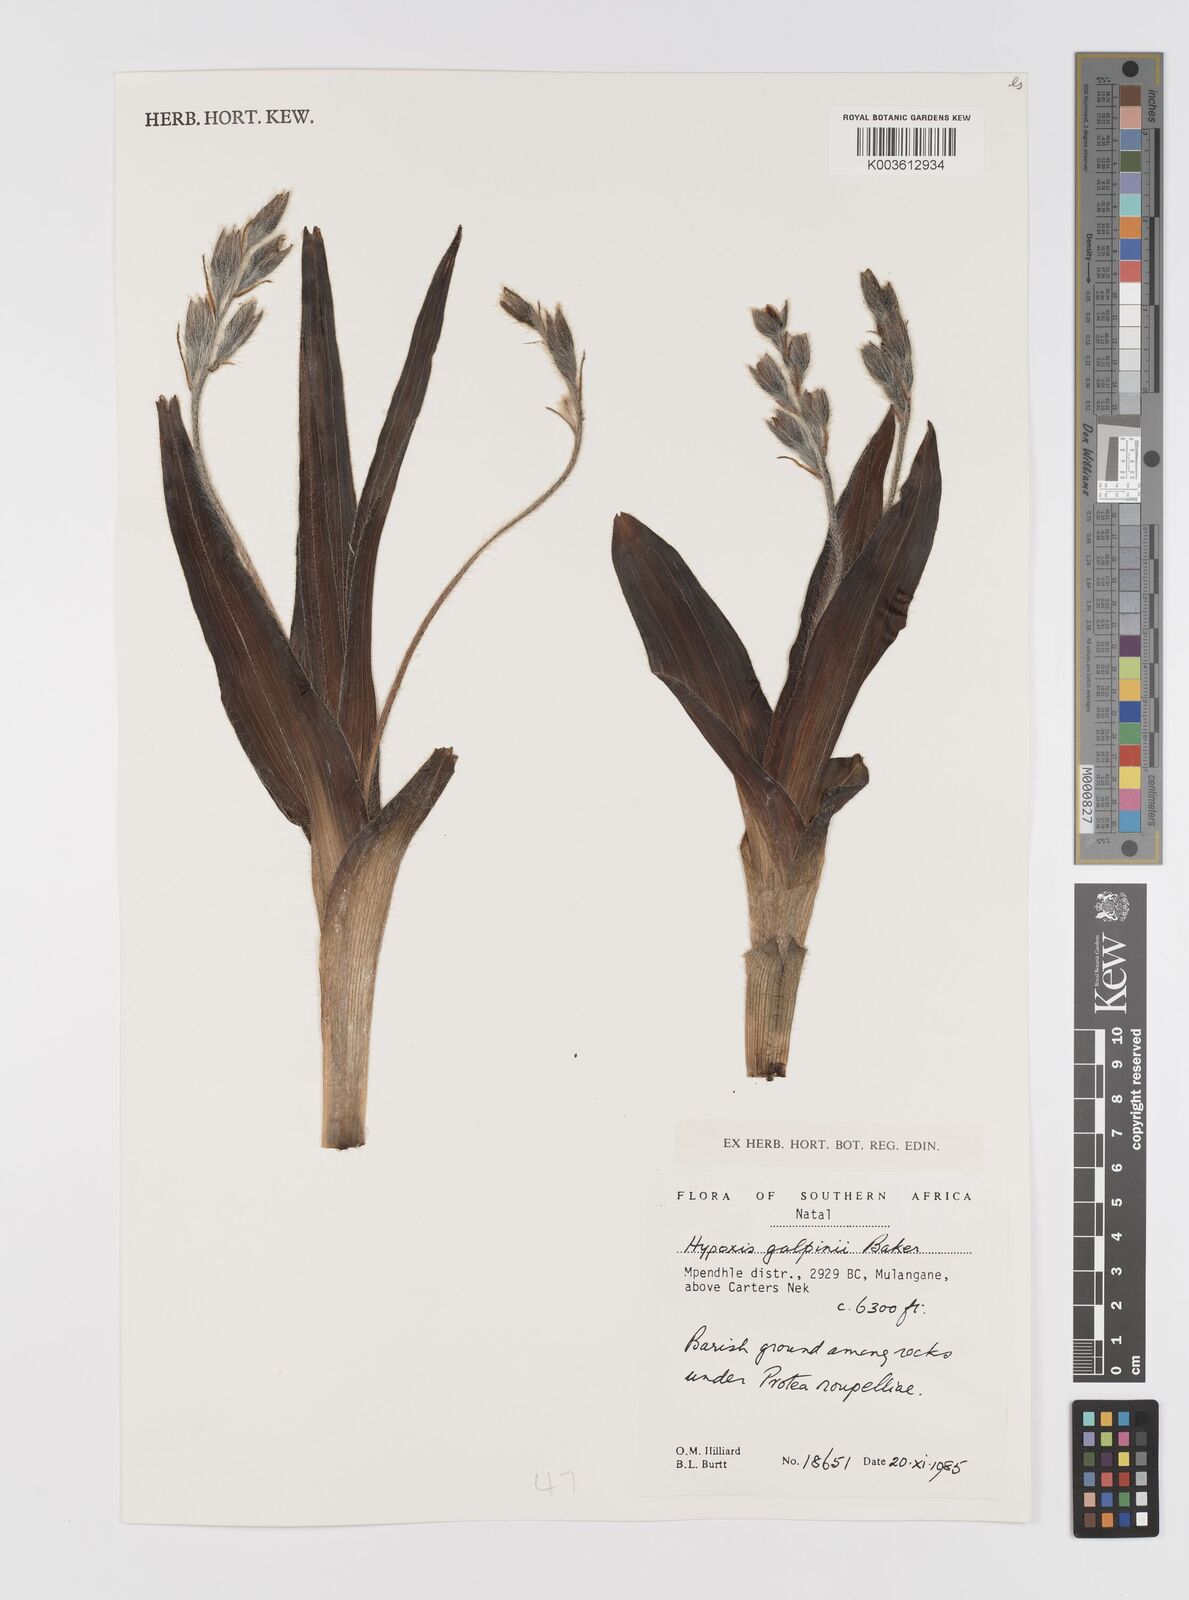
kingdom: Plantae
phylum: Tracheophyta
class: Liliopsida
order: Asparagales
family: Hypoxidaceae
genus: Hypoxis
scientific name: Hypoxis galpinii
